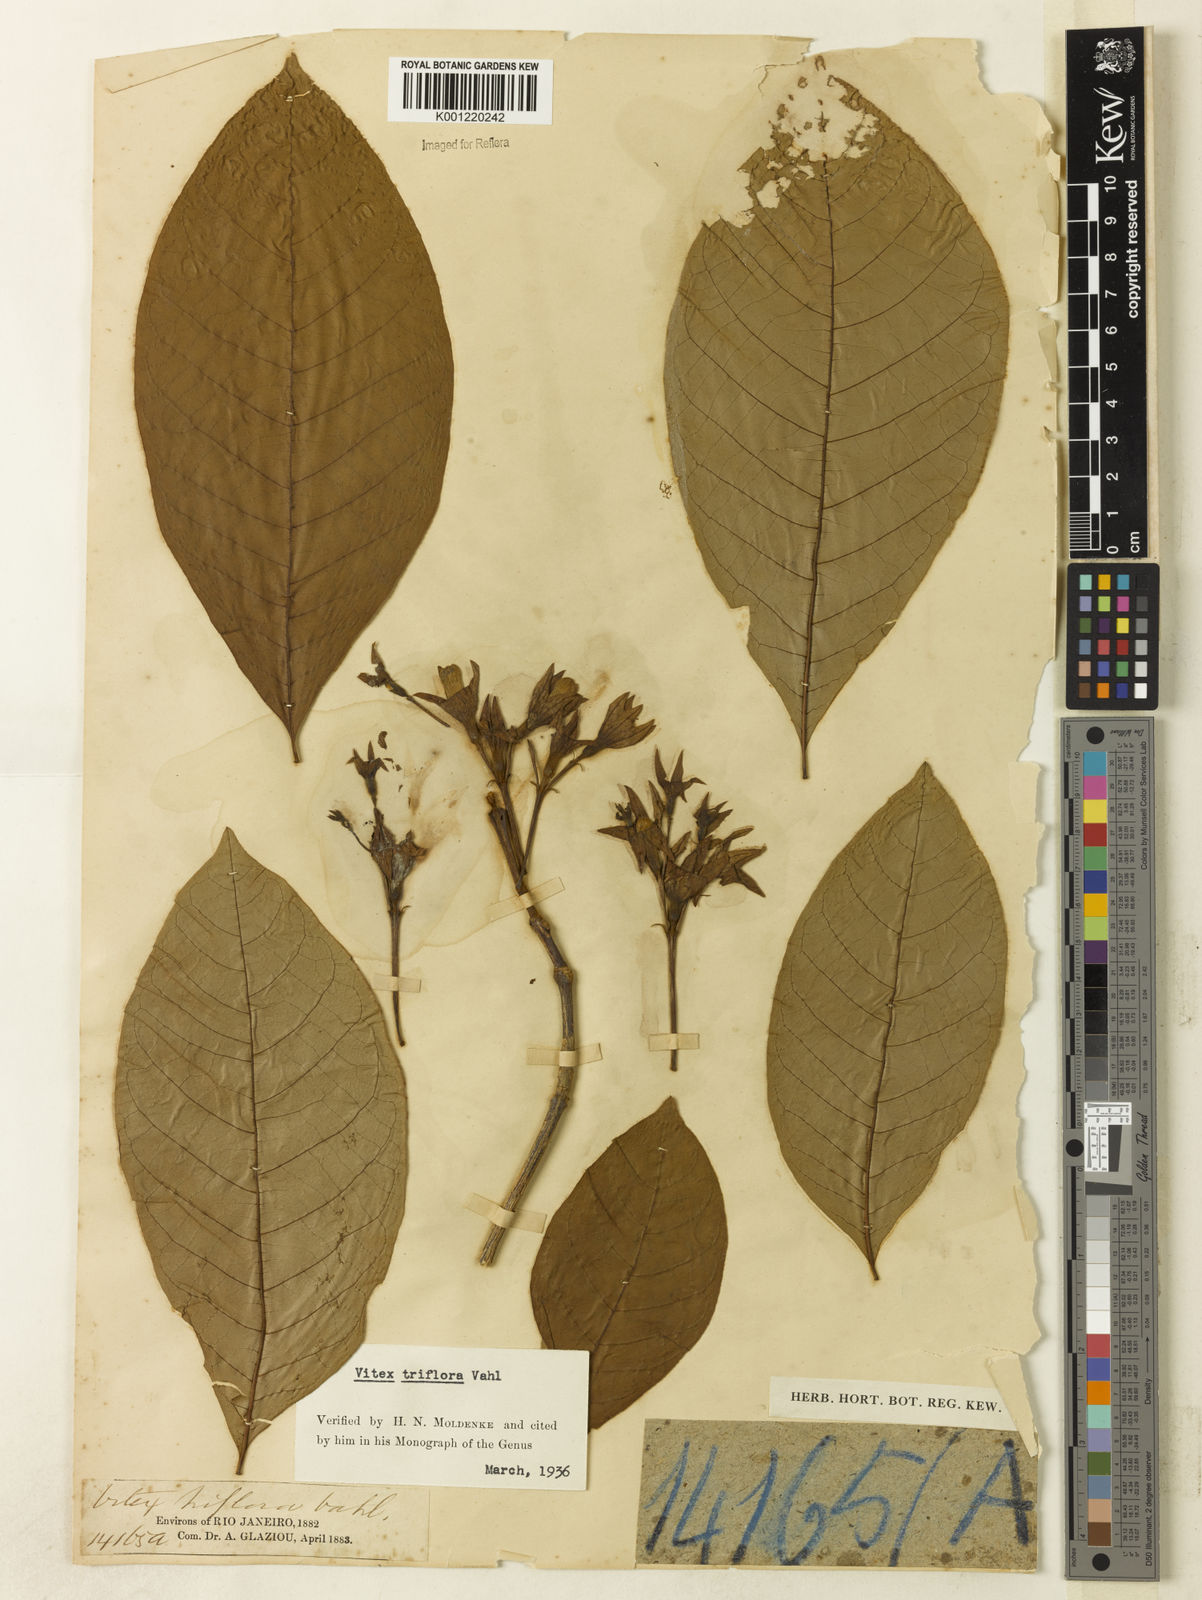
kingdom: Plantae
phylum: Tracheophyta
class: Magnoliopsida
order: Lamiales
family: Lamiaceae
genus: Vitex
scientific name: Vitex triflora
